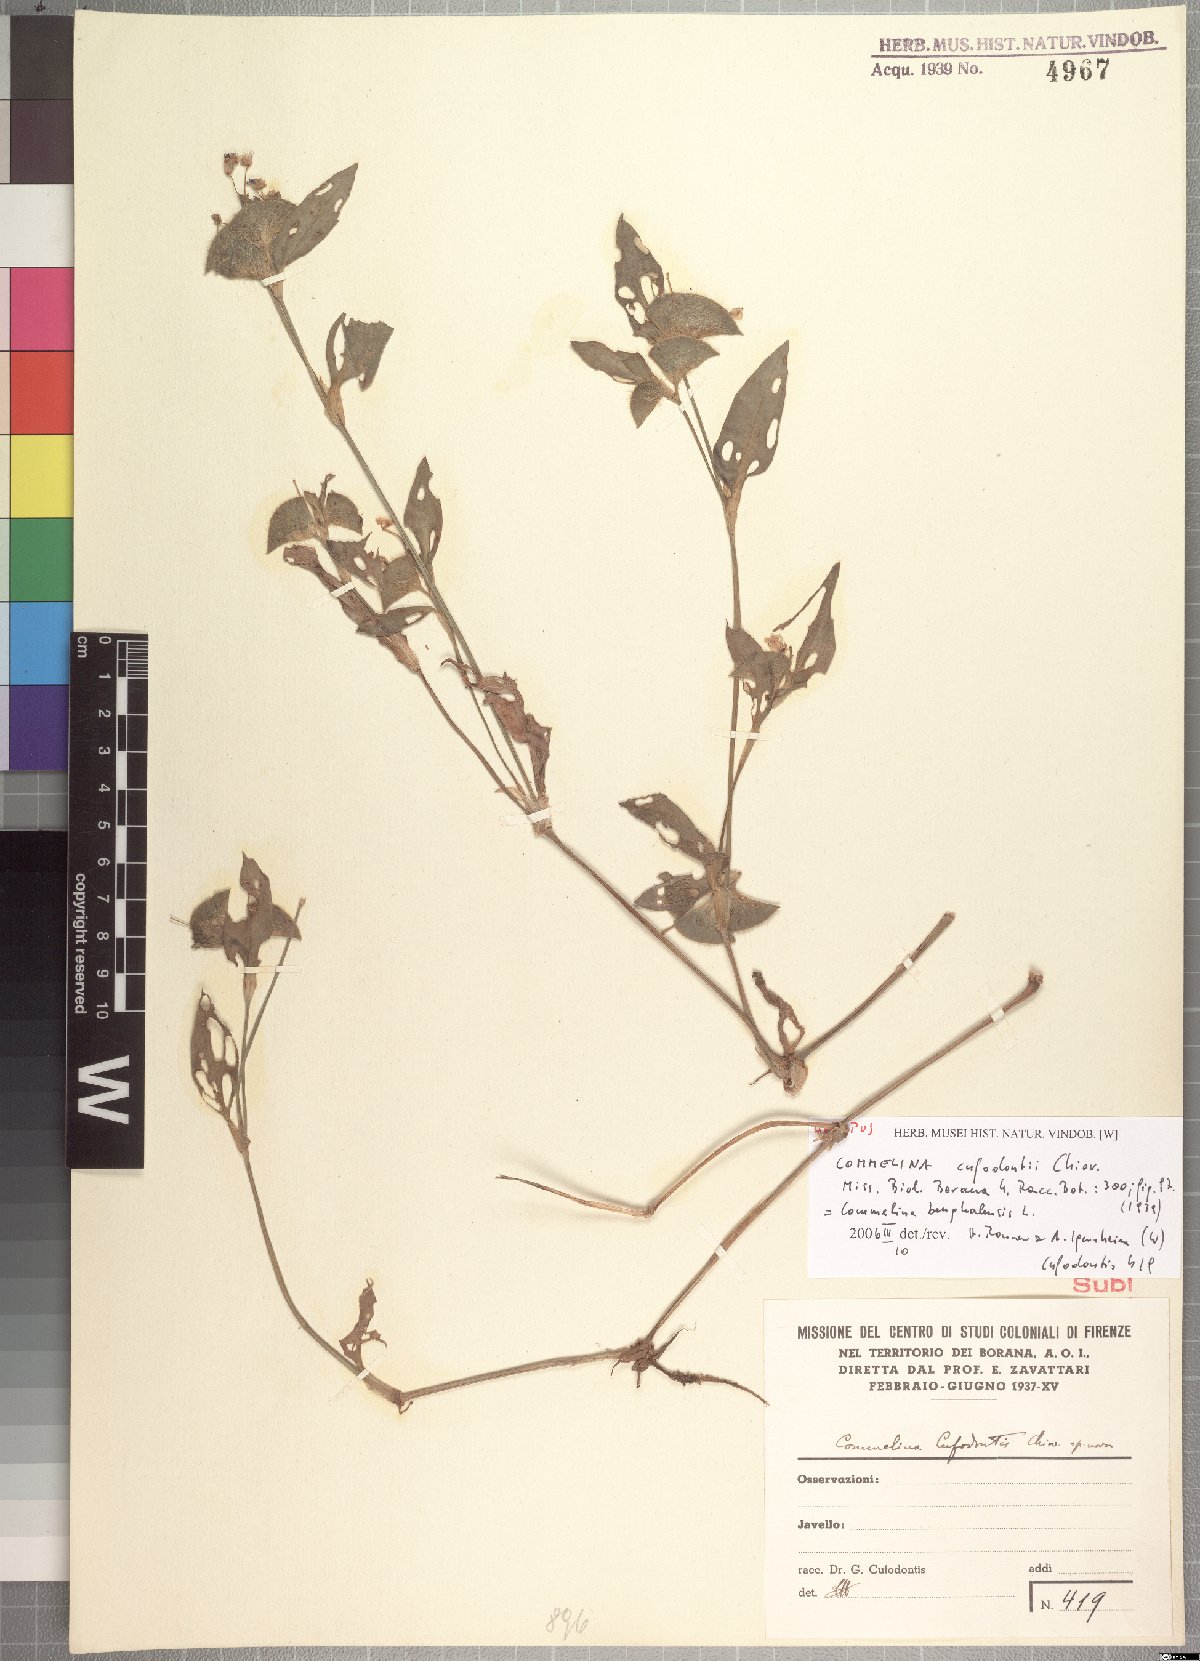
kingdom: Plantae
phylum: Tracheophyta
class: Liliopsida
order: Commelinales
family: Commelinaceae
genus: Commelina
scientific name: Commelina cufodontii
